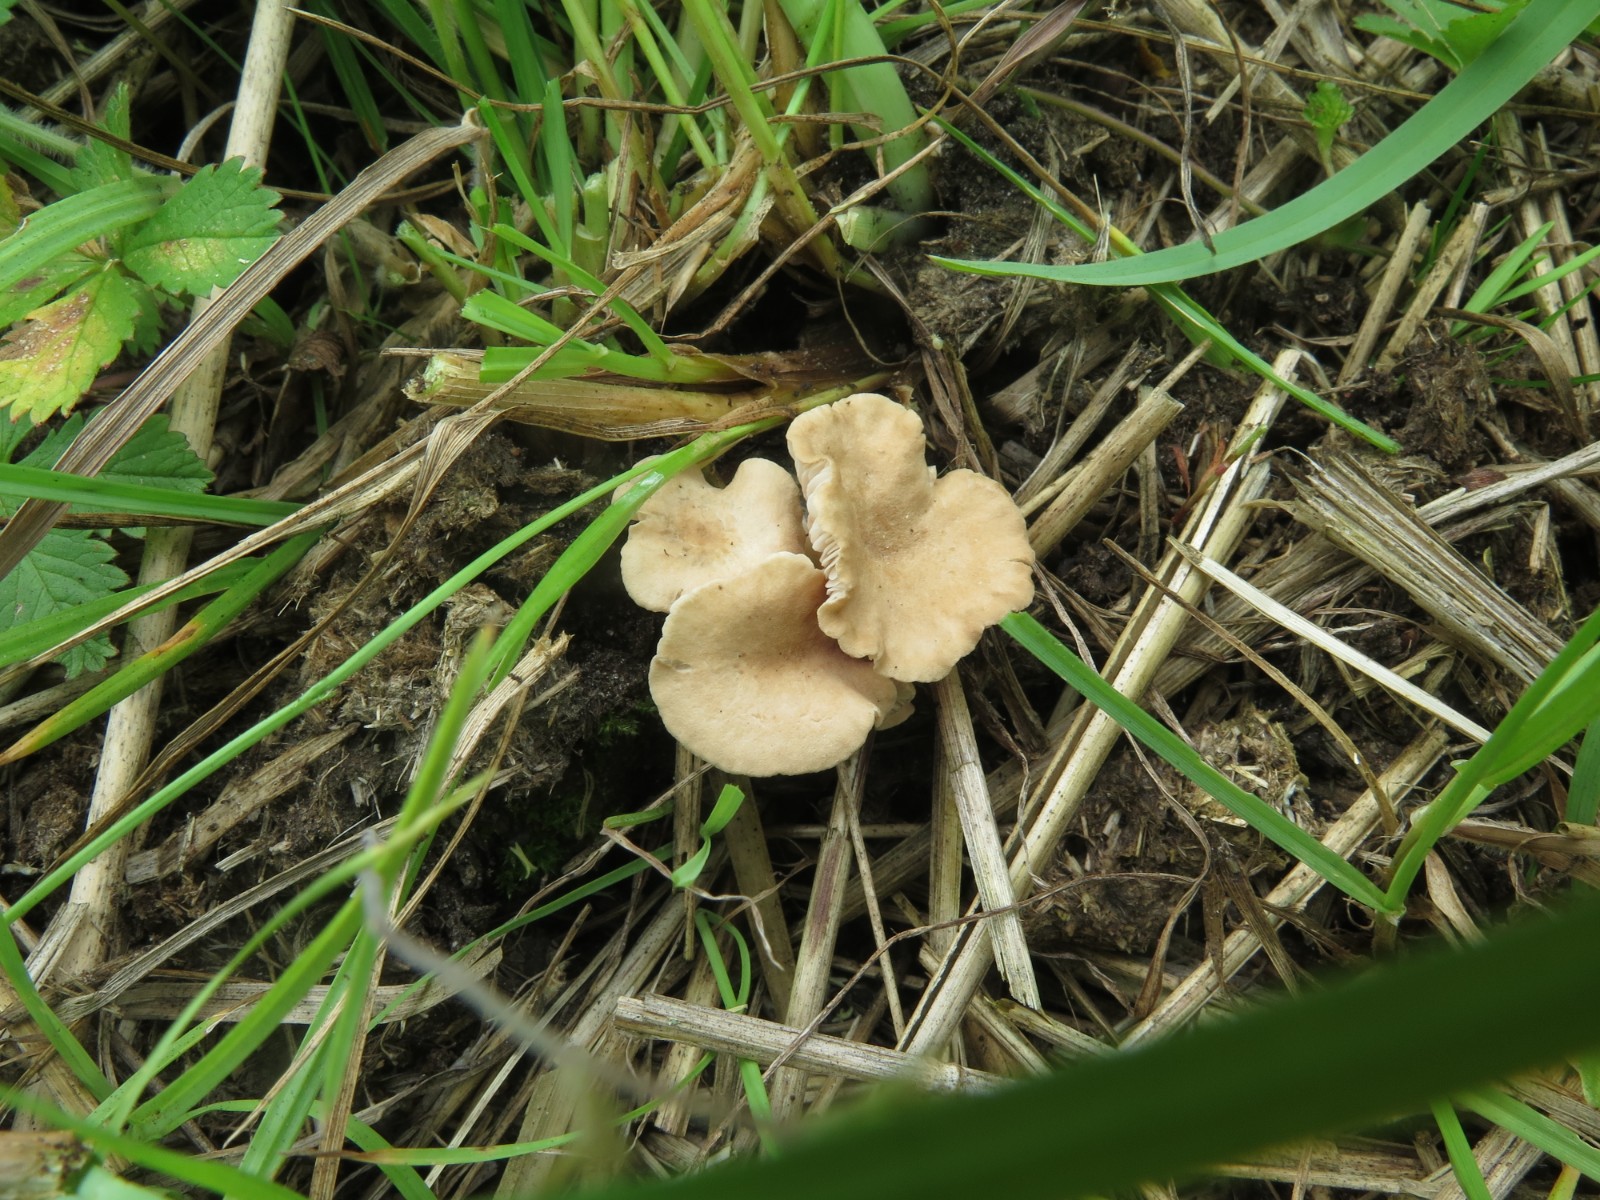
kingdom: Fungi
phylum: Basidiomycota
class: Agaricomycetes
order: Agaricales
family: Entolomataceae
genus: Entoloma
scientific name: Entoloma neglectum
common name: bleg rødblad
